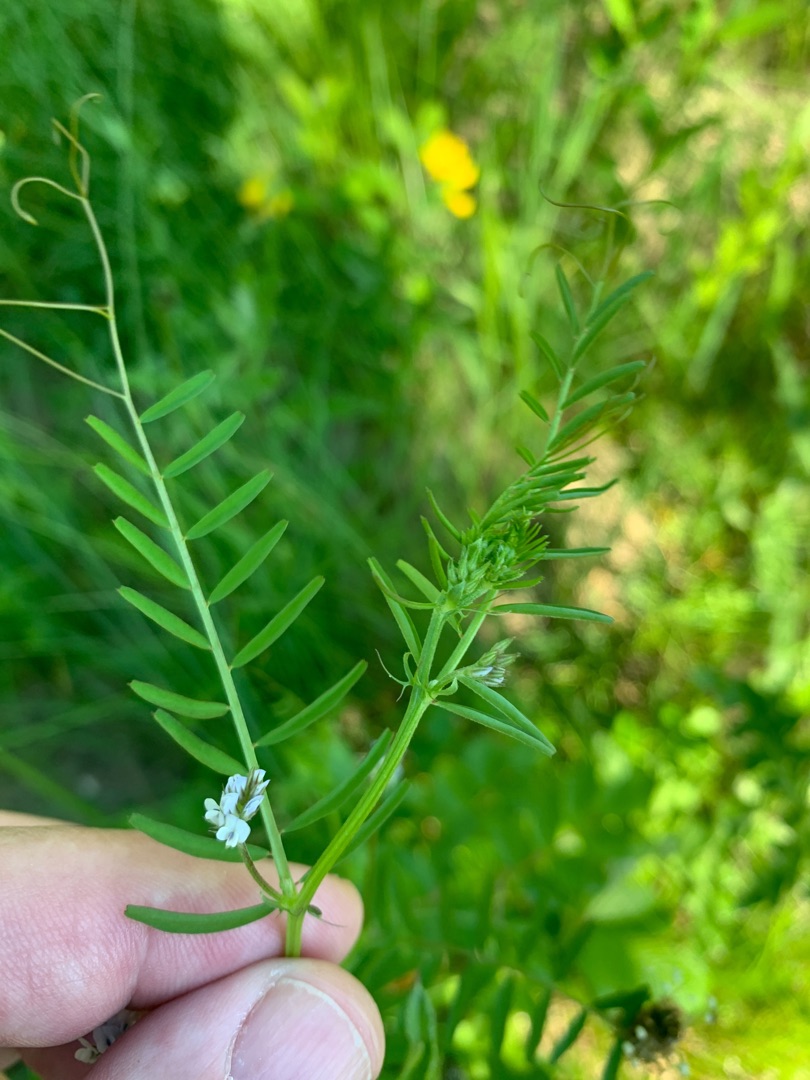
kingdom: Plantae
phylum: Tracheophyta
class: Magnoliopsida
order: Fabales
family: Fabaceae
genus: Vicia
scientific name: Vicia hirsuta
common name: Tofrøet vikke
